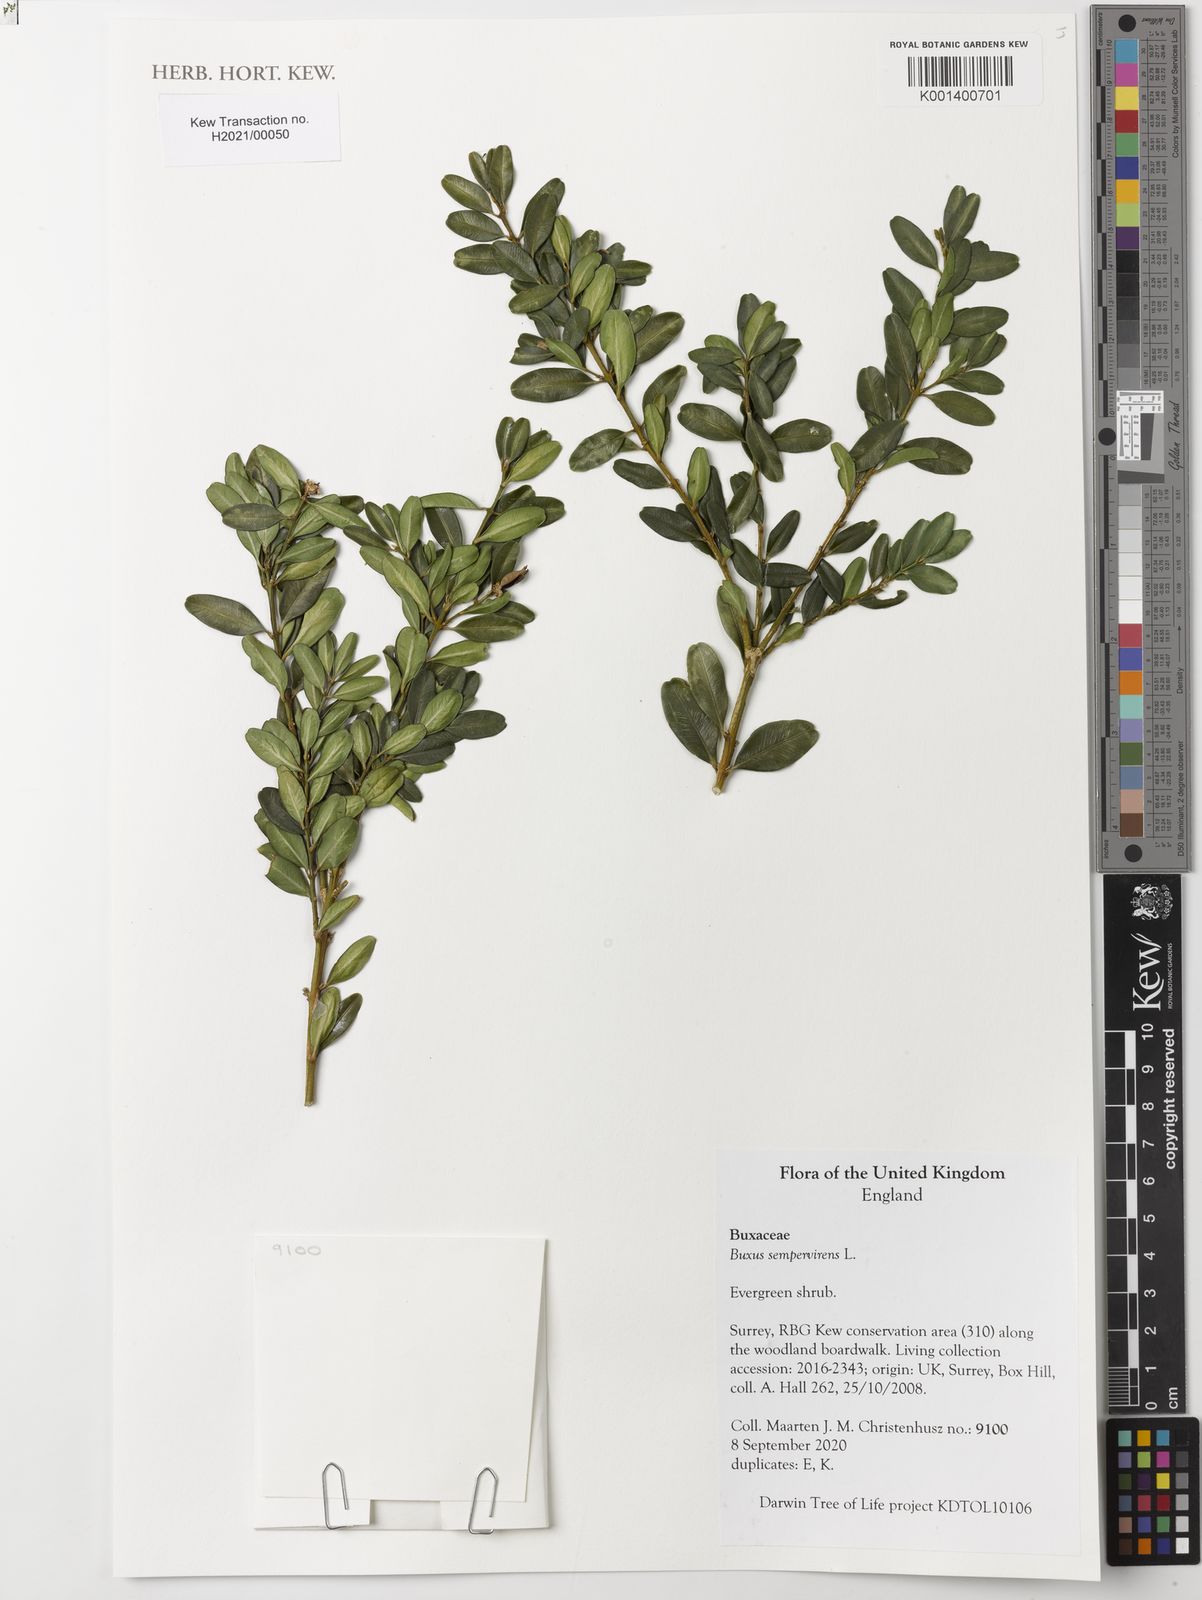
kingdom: Plantae
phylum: Tracheophyta
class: Magnoliopsida
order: Buxales
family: Buxaceae
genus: Buxus
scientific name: Buxus sempervirens
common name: Box
